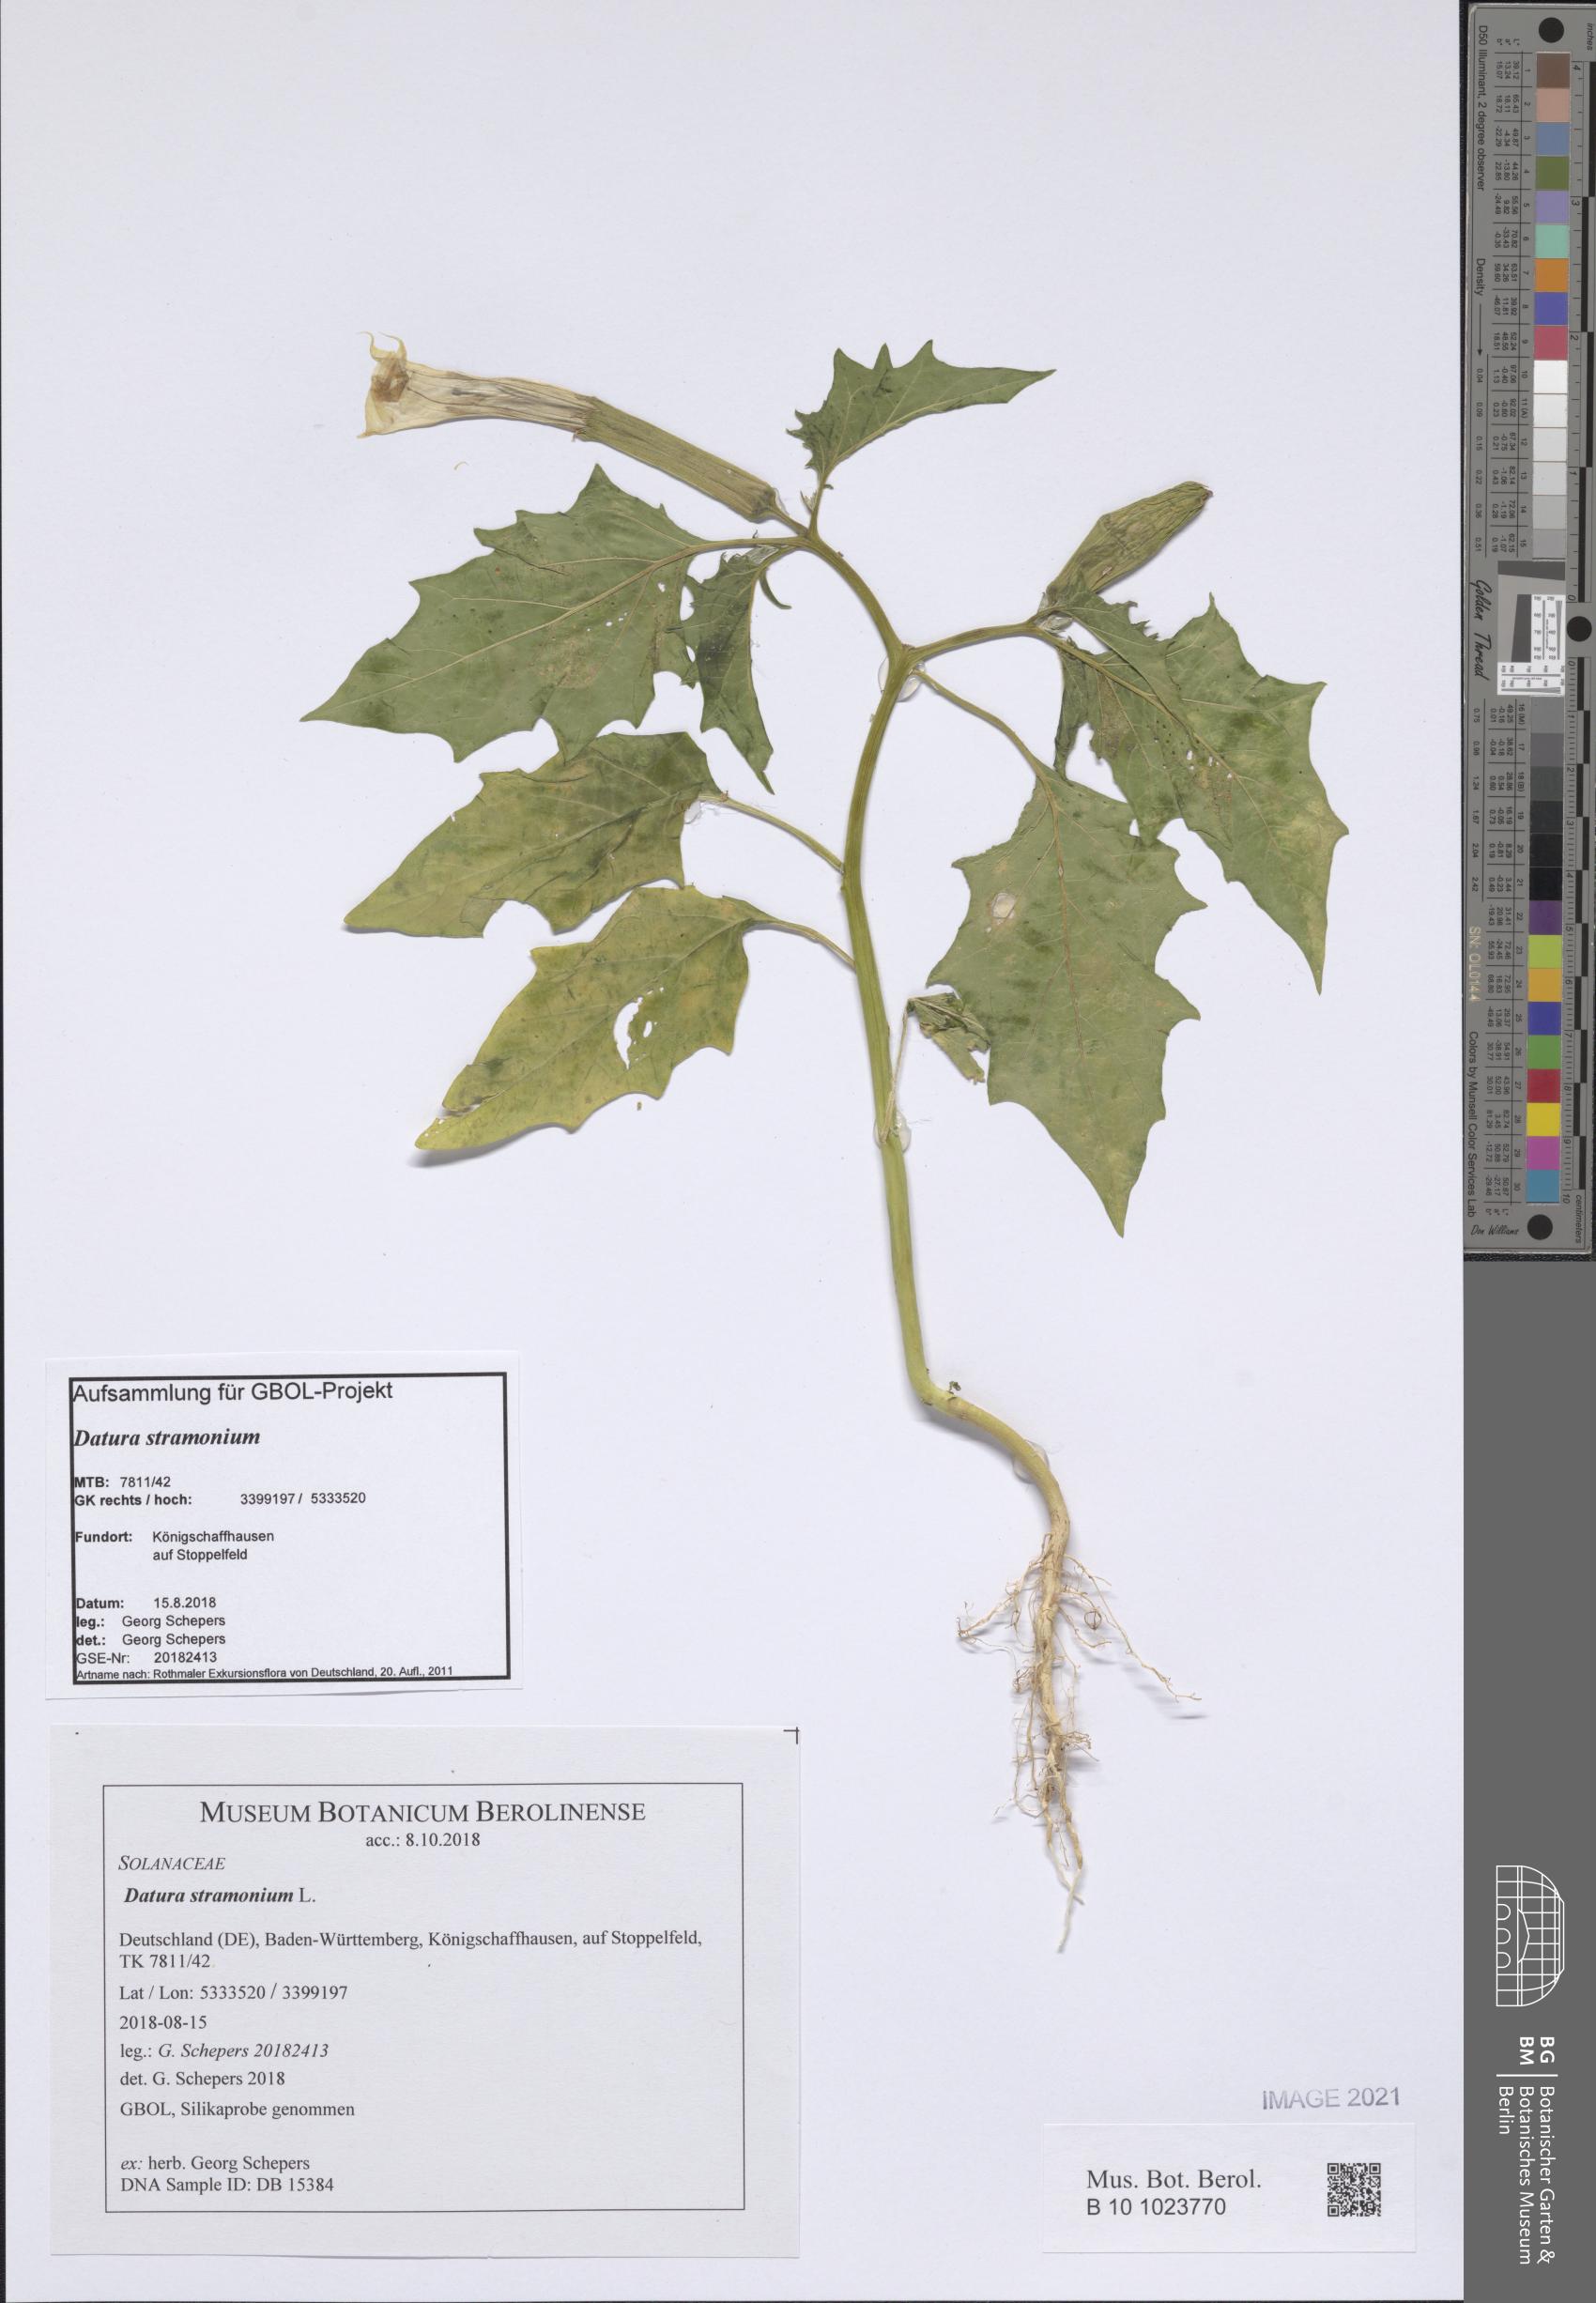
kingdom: Plantae
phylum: Tracheophyta
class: Magnoliopsida
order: Solanales
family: Solanaceae
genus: Datura
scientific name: Datura stramonium
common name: Thorn-apple
